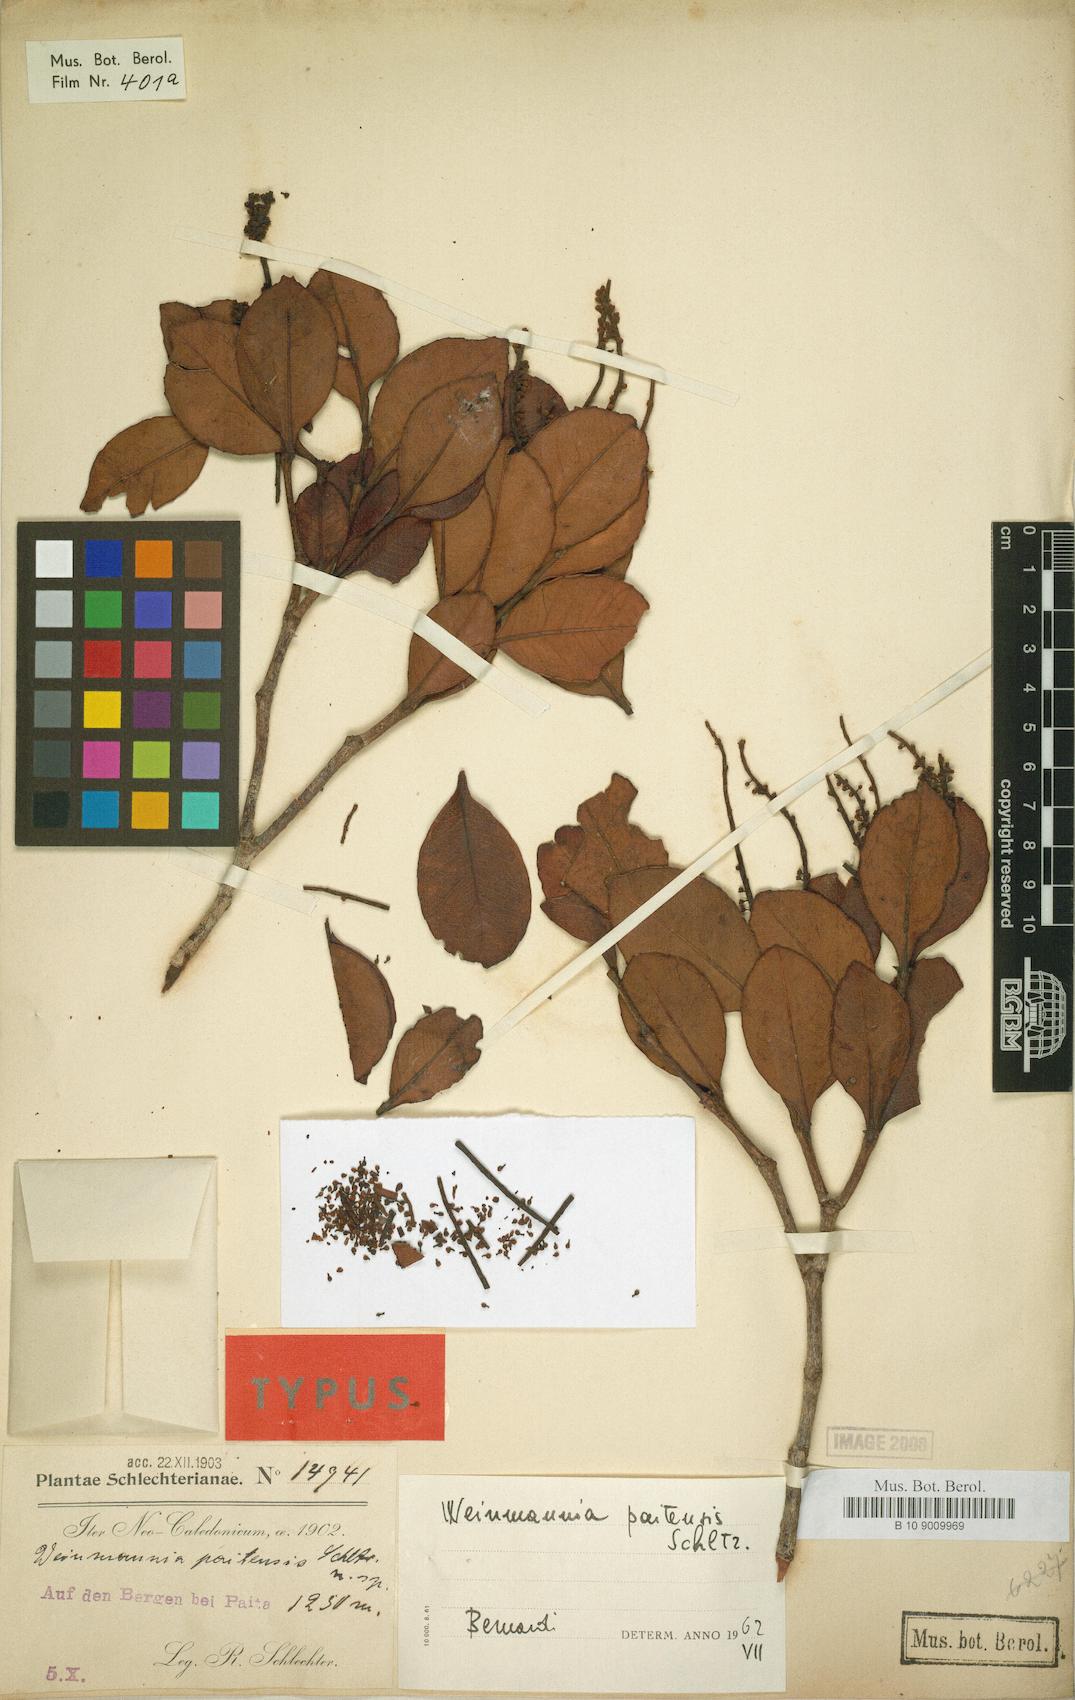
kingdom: Plantae
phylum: Tracheophyta
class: Magnoliopsida
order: Oxalidales
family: Cunoniaceae
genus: Pterophylla
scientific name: Pterophylla paitensis
